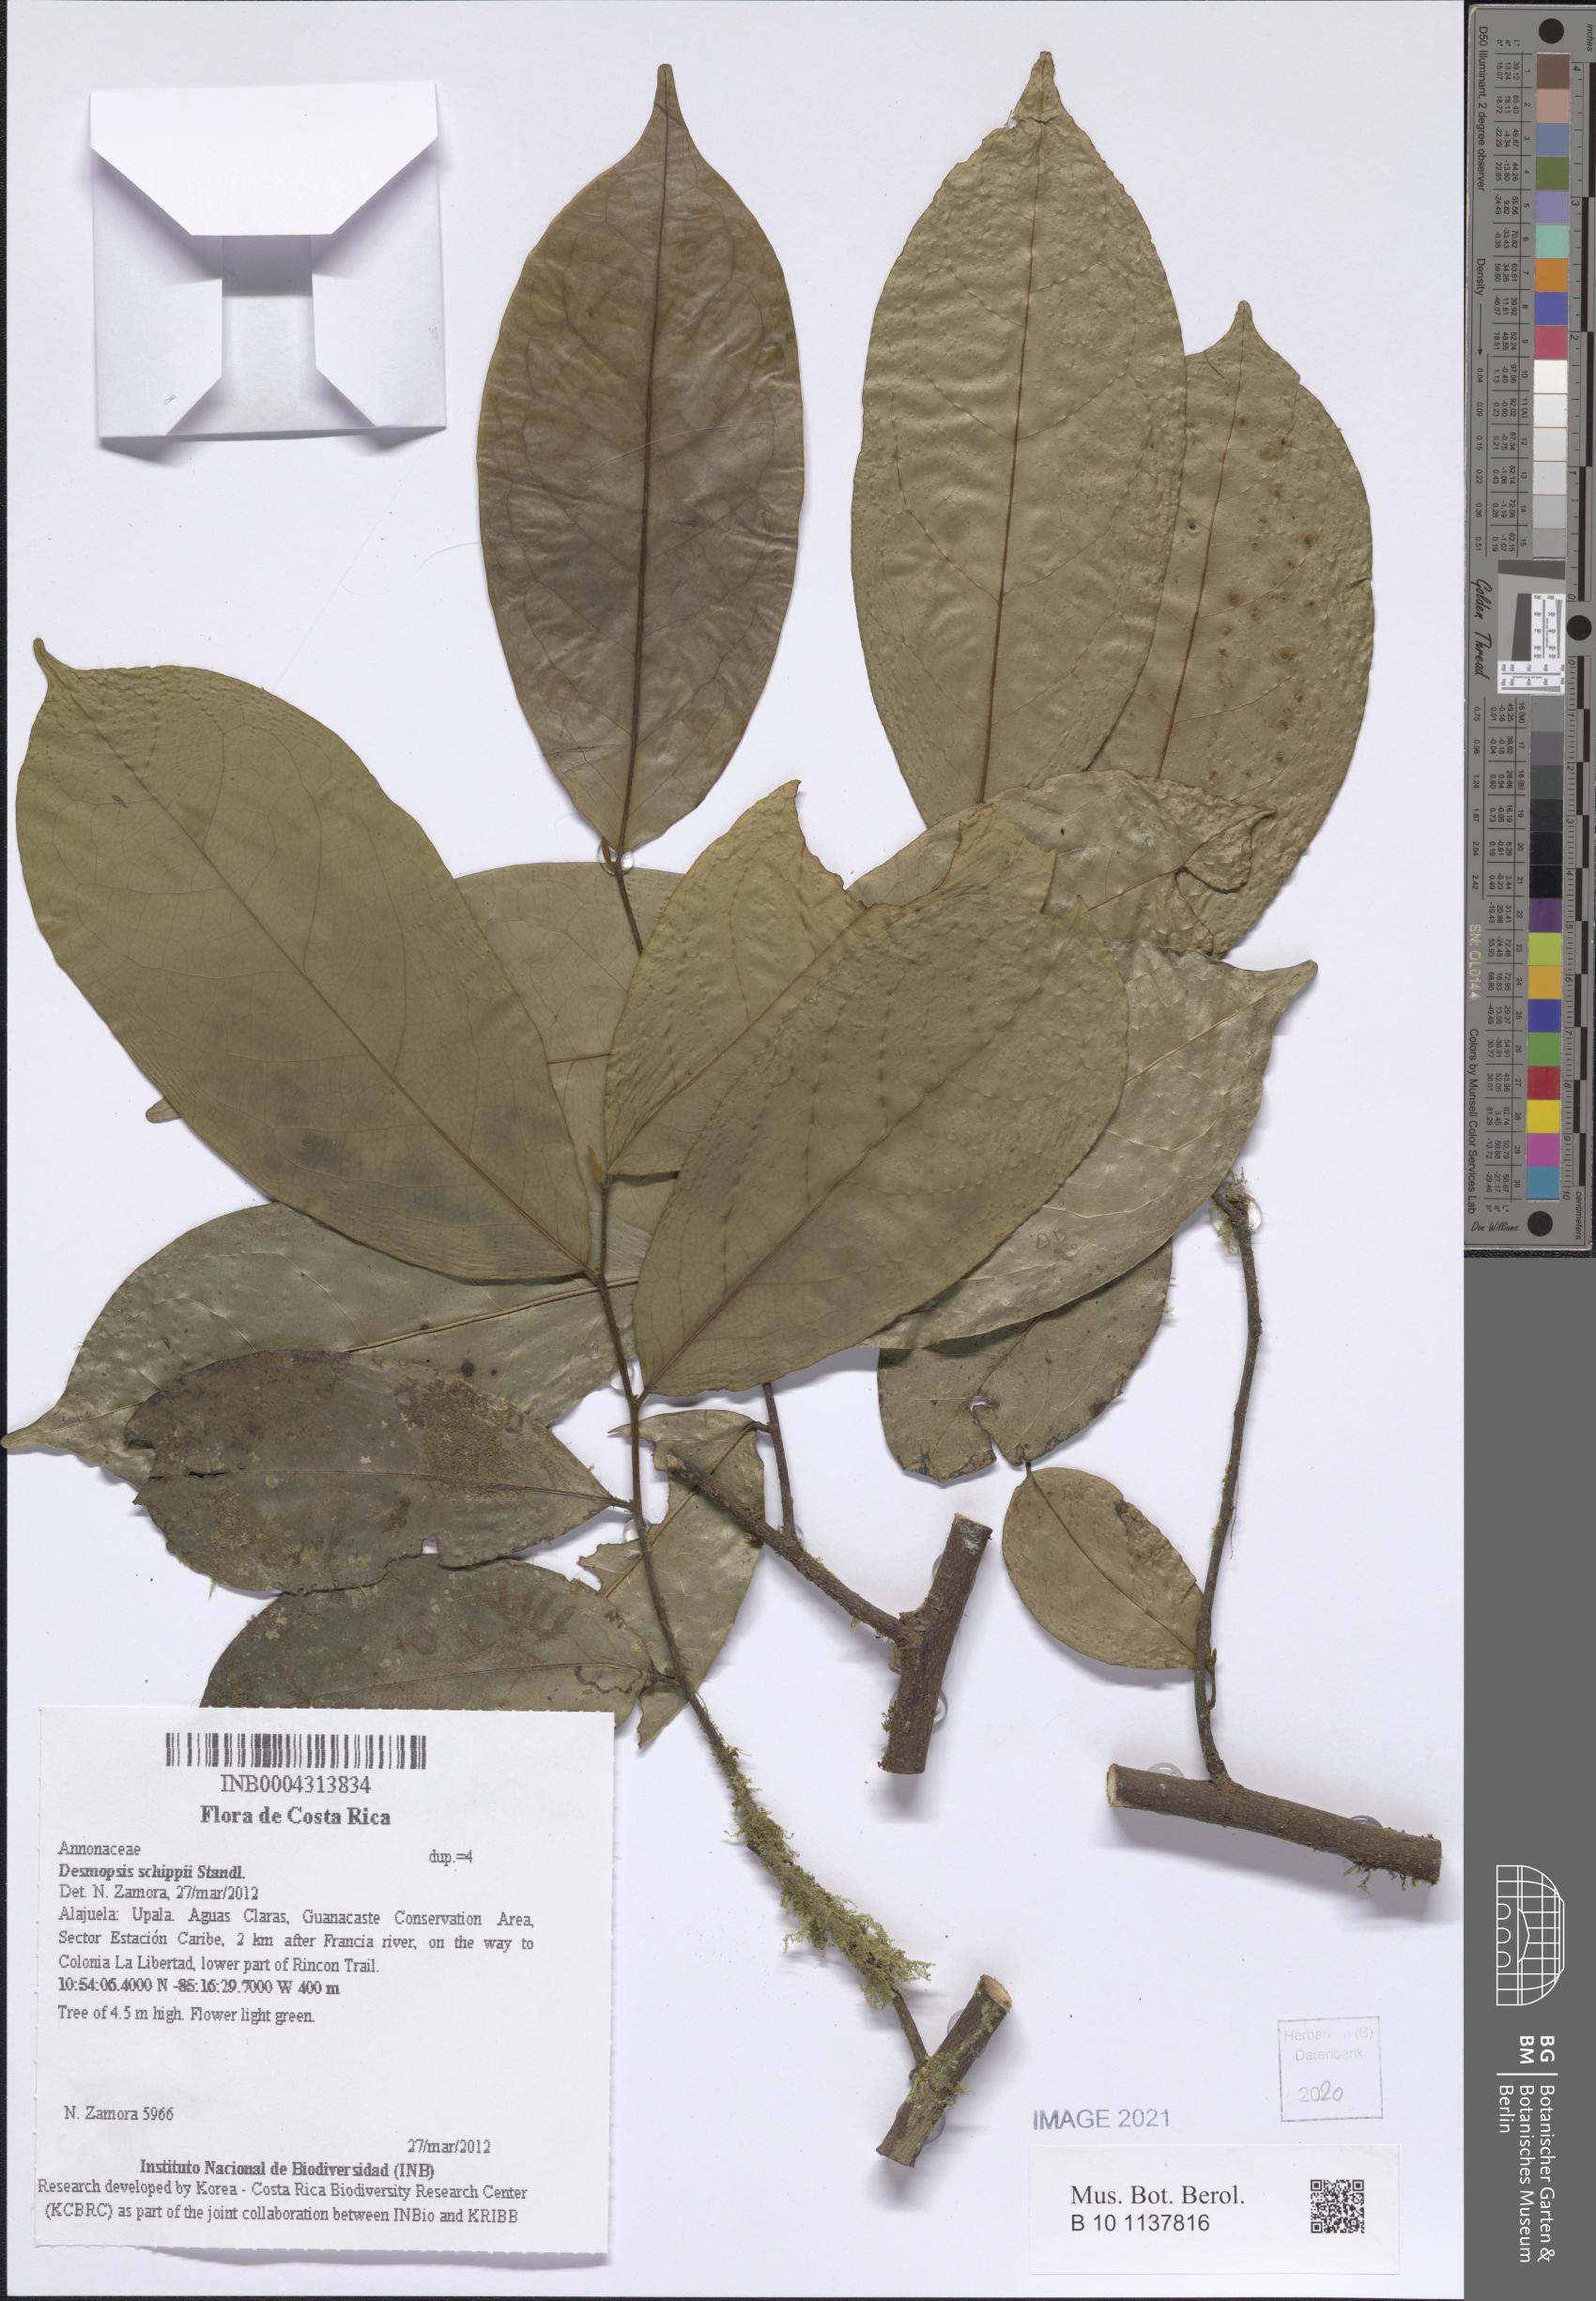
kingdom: Plantae
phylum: Tracheophyta
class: Magnoliopsida
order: Magnoliales
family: Annonaceae
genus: Desmopsis
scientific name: Desmopsis schippii
